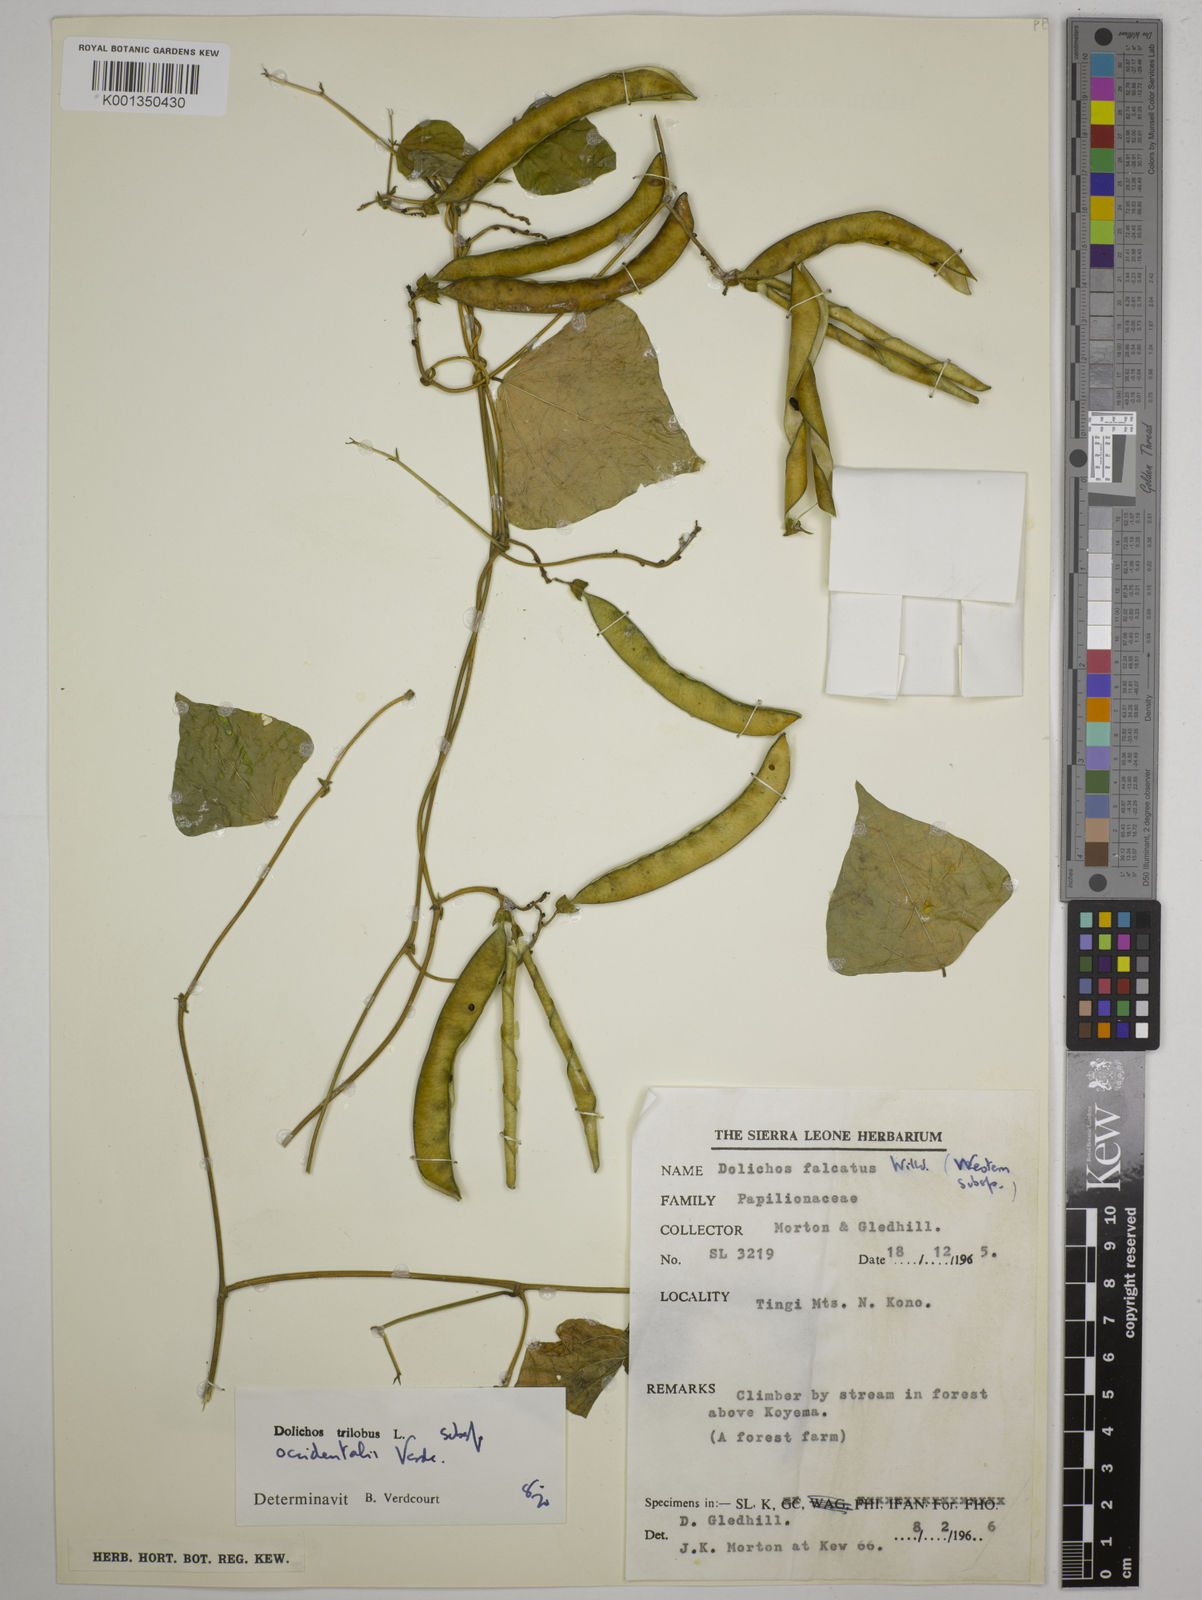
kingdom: Plantae
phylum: Tracheophyta
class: Magnoliopsida
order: Fabales
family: Fabaceae
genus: Dolichos
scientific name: Dolichos trilobus
